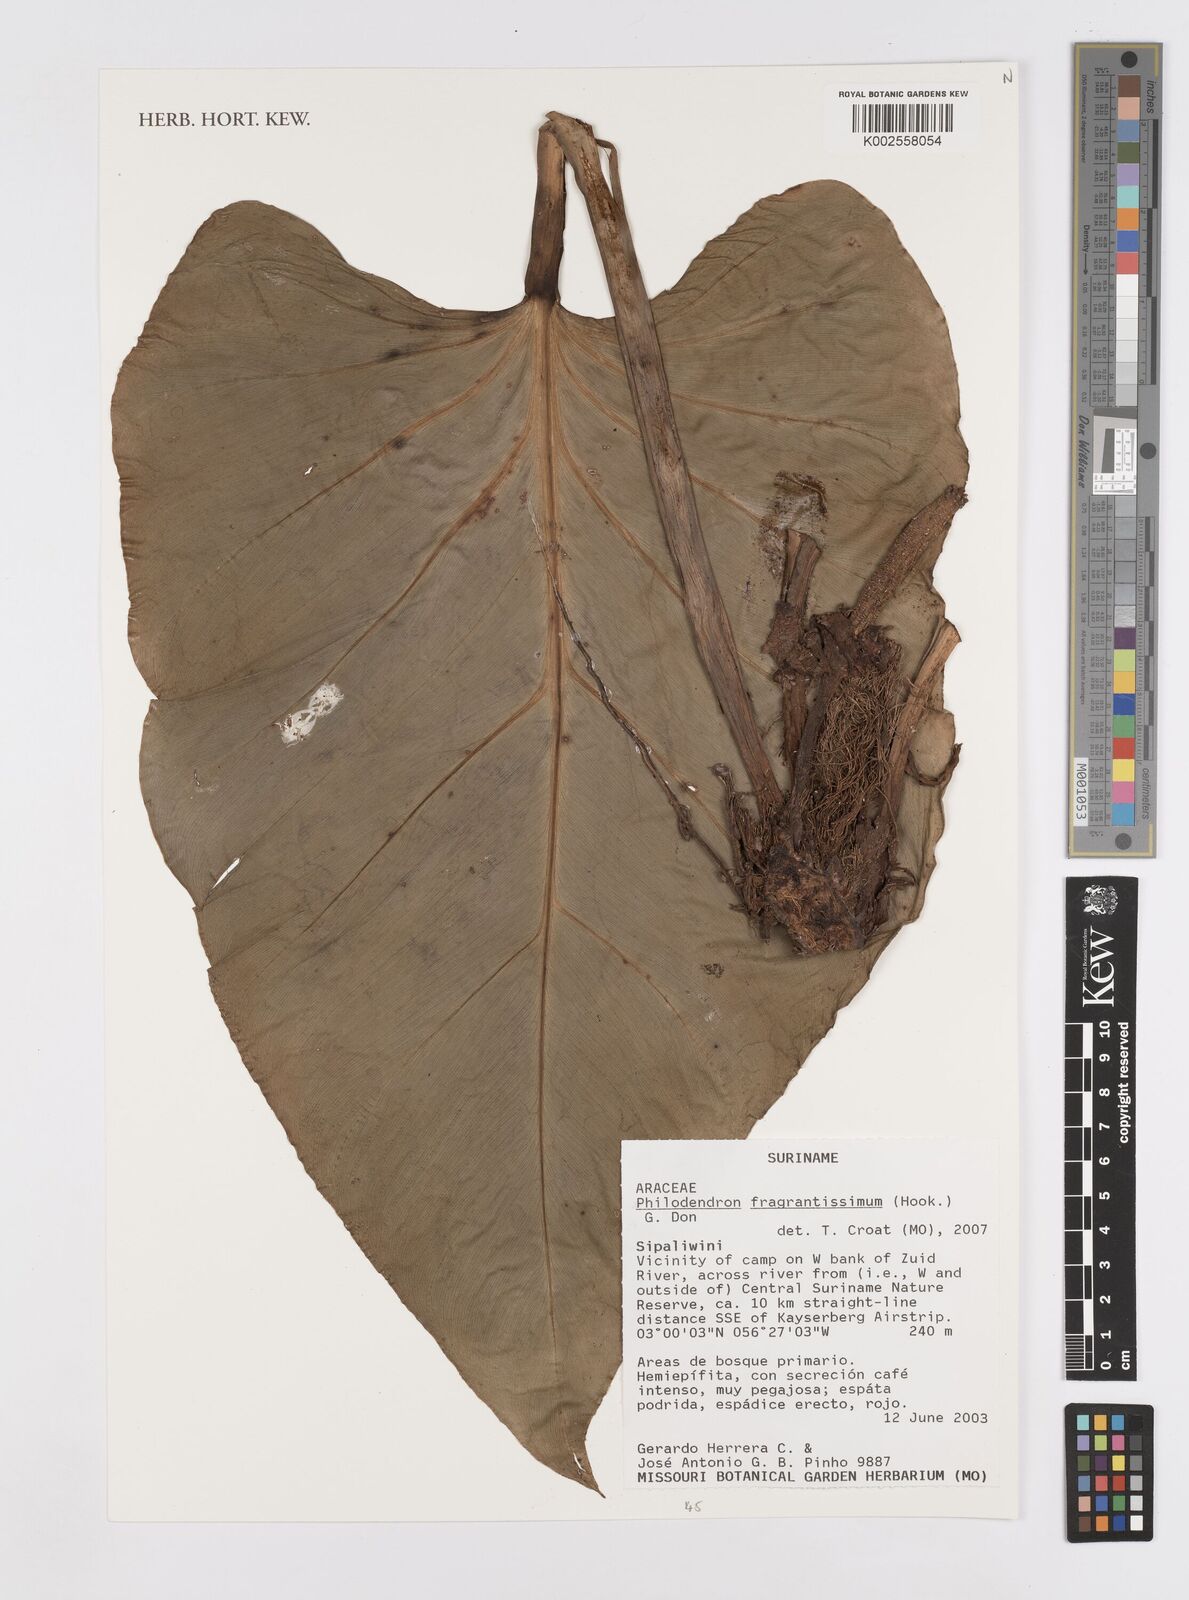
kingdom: Plantae
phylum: Tracheophyta
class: Liliopsida
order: Alismatales
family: Araceae
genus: Philodendron
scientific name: Philodendron fragrantissimum
